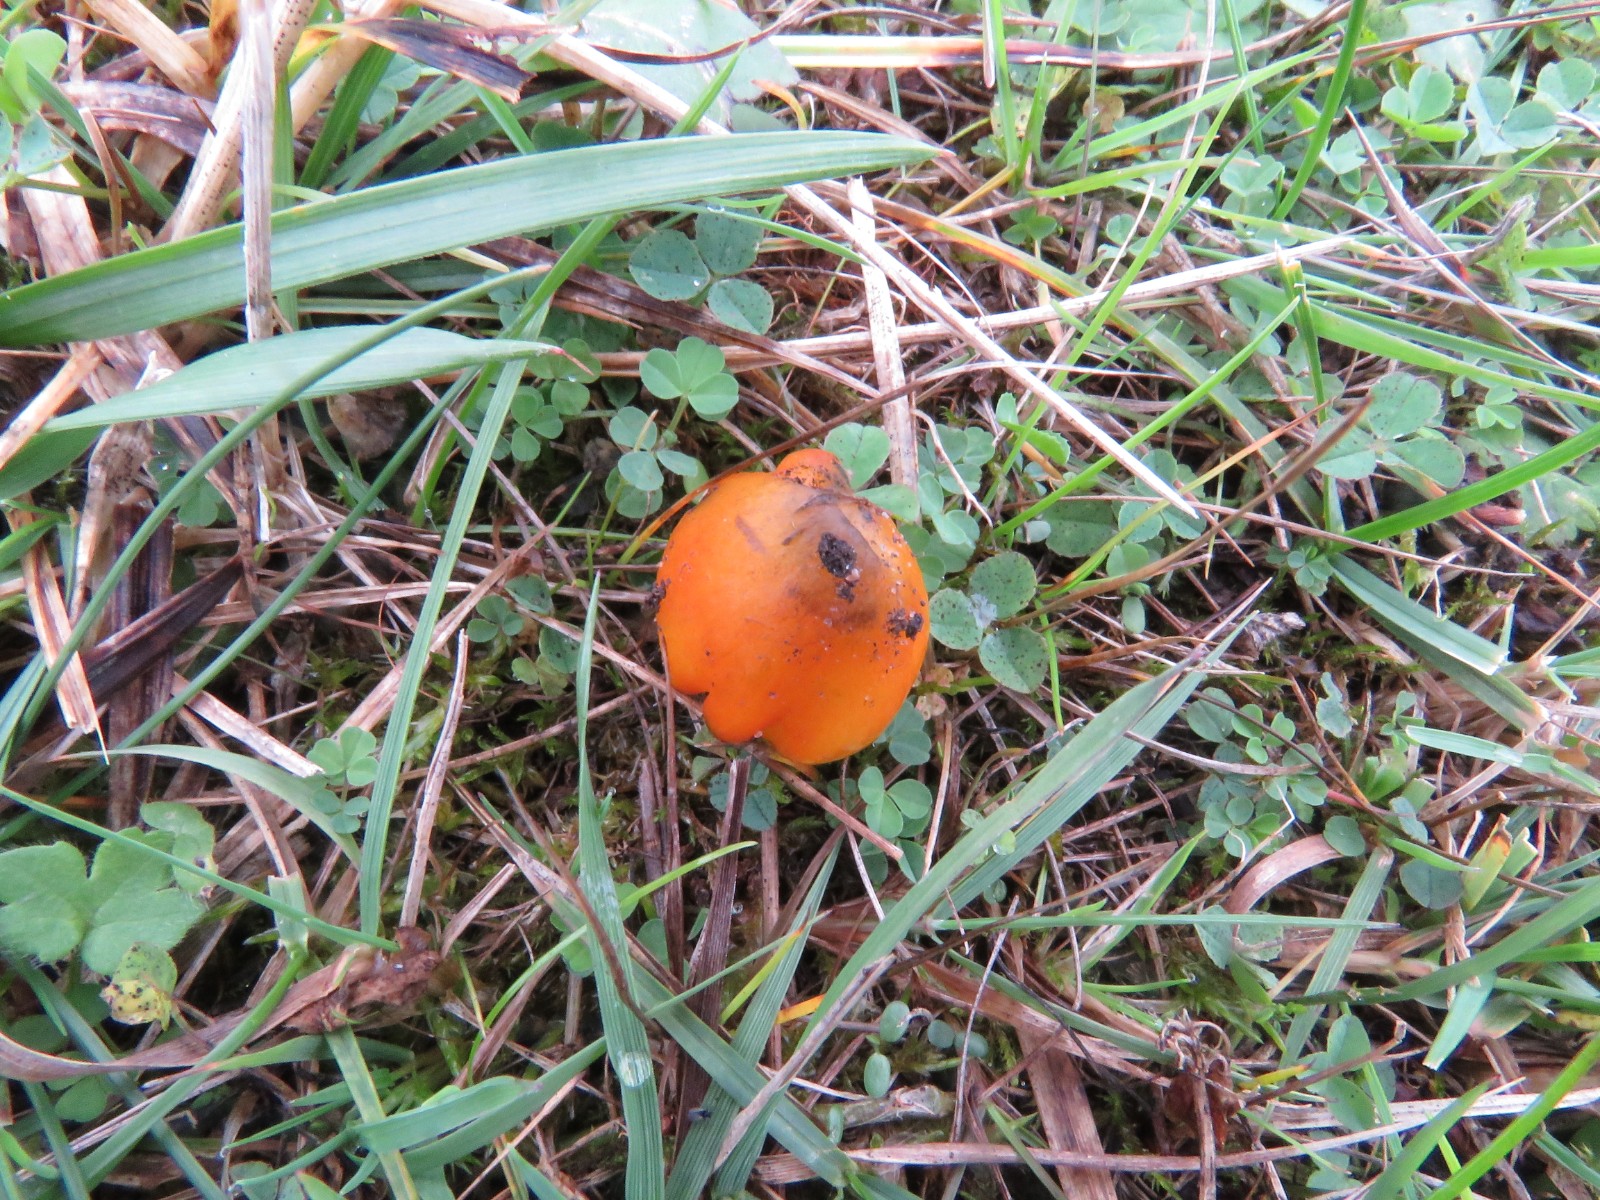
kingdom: Fungi
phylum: Basidiomycota
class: Agaricomycetes
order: Agaricales
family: Hygrophoraceae
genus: Hygrocybe
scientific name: Hygrocybe conica
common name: kegle-vokshat
